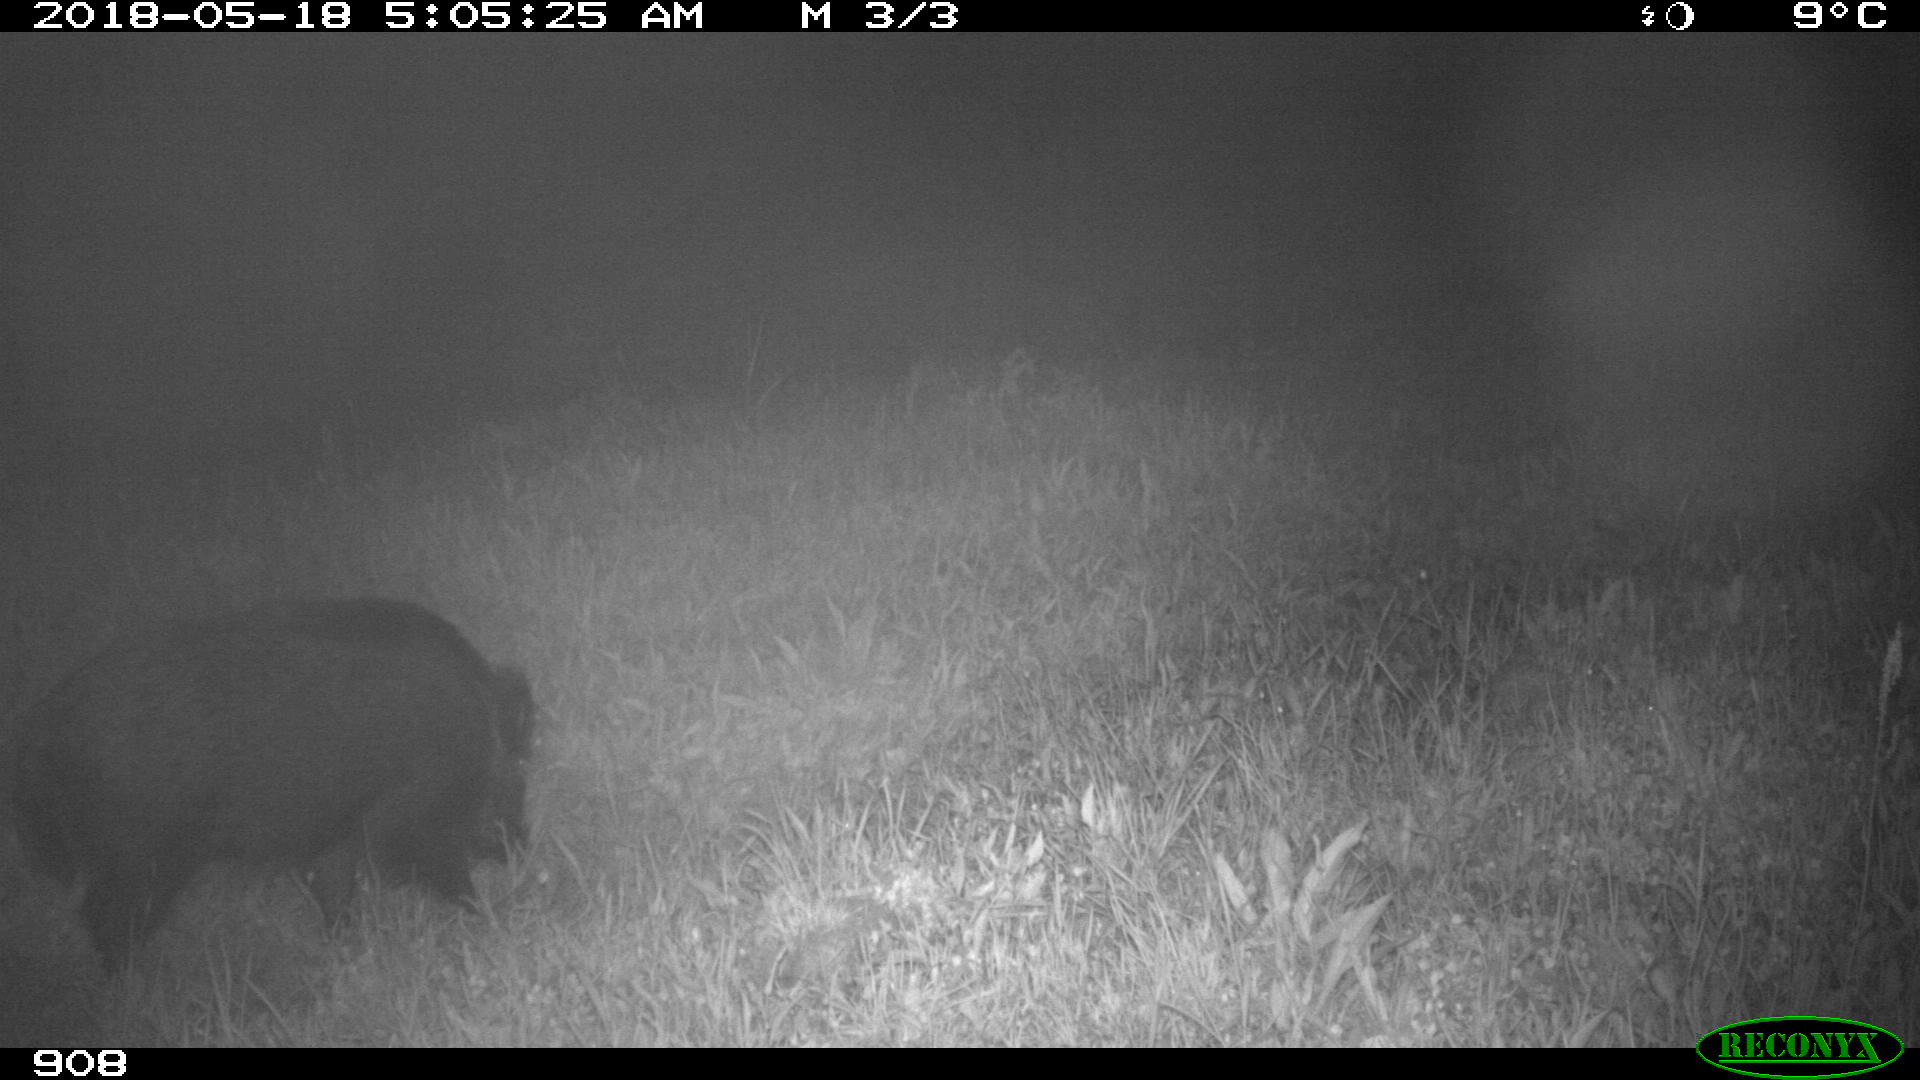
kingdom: Animalia
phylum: Chordata
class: Mammalia
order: Artiodactyla
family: Suidae
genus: Sus
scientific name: Sus scrofa
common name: Wild boar
